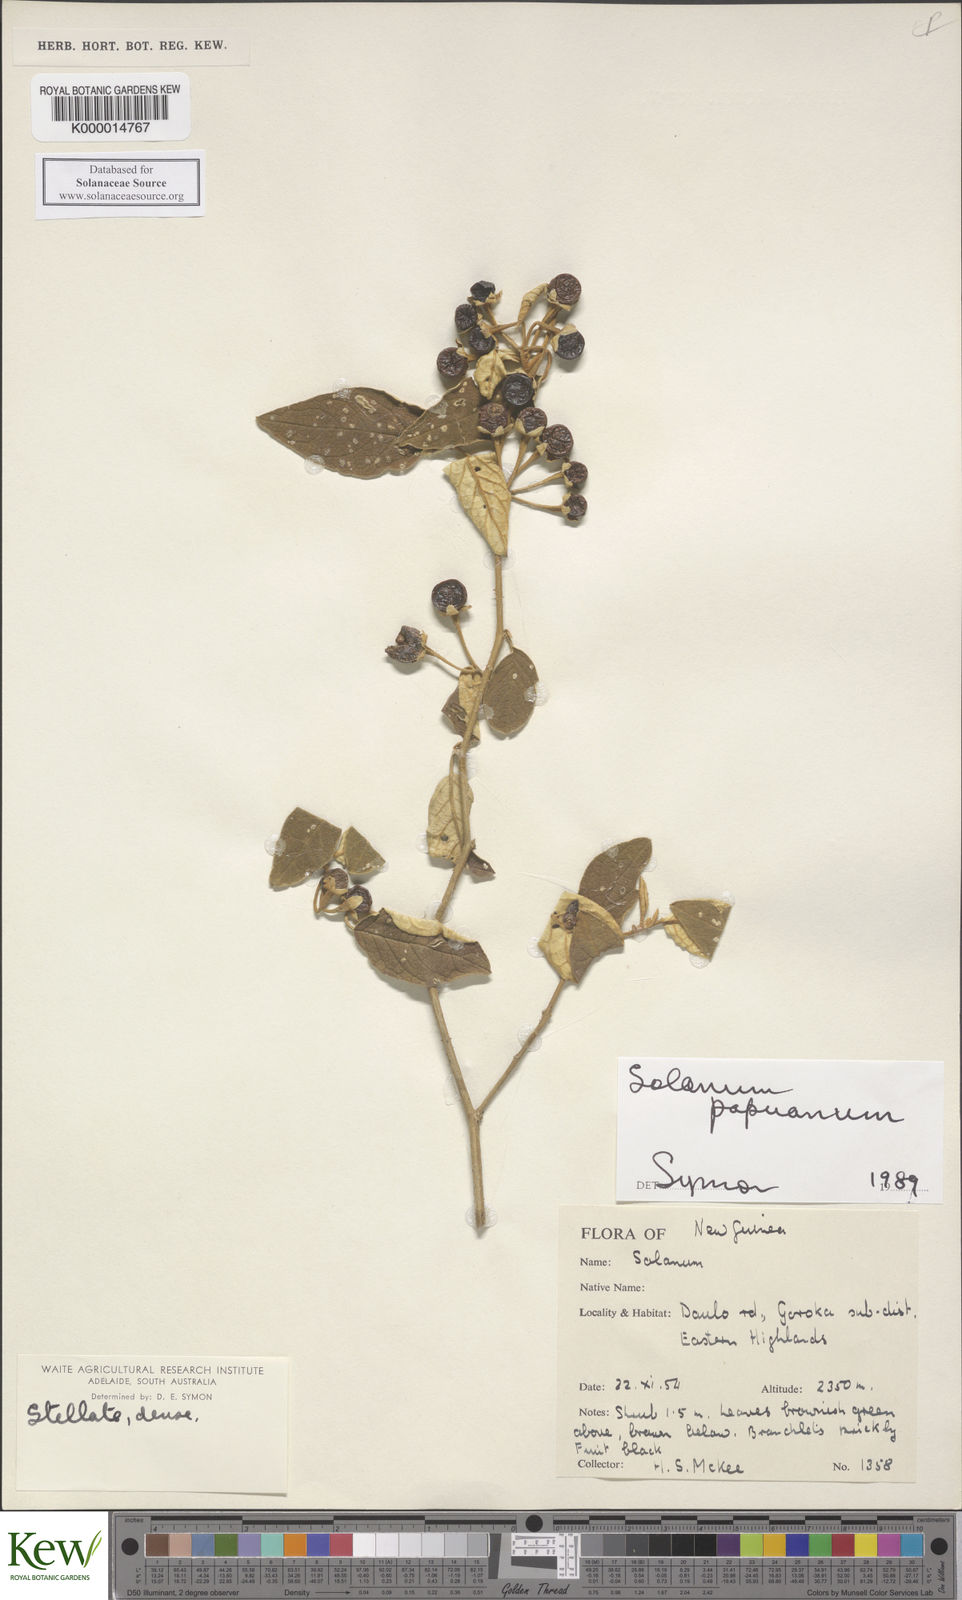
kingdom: Plantae
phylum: Tracheophyta
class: Magnoliopsida
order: Solanales
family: Solanaceae
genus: Solanum
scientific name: Solanum papuanum
